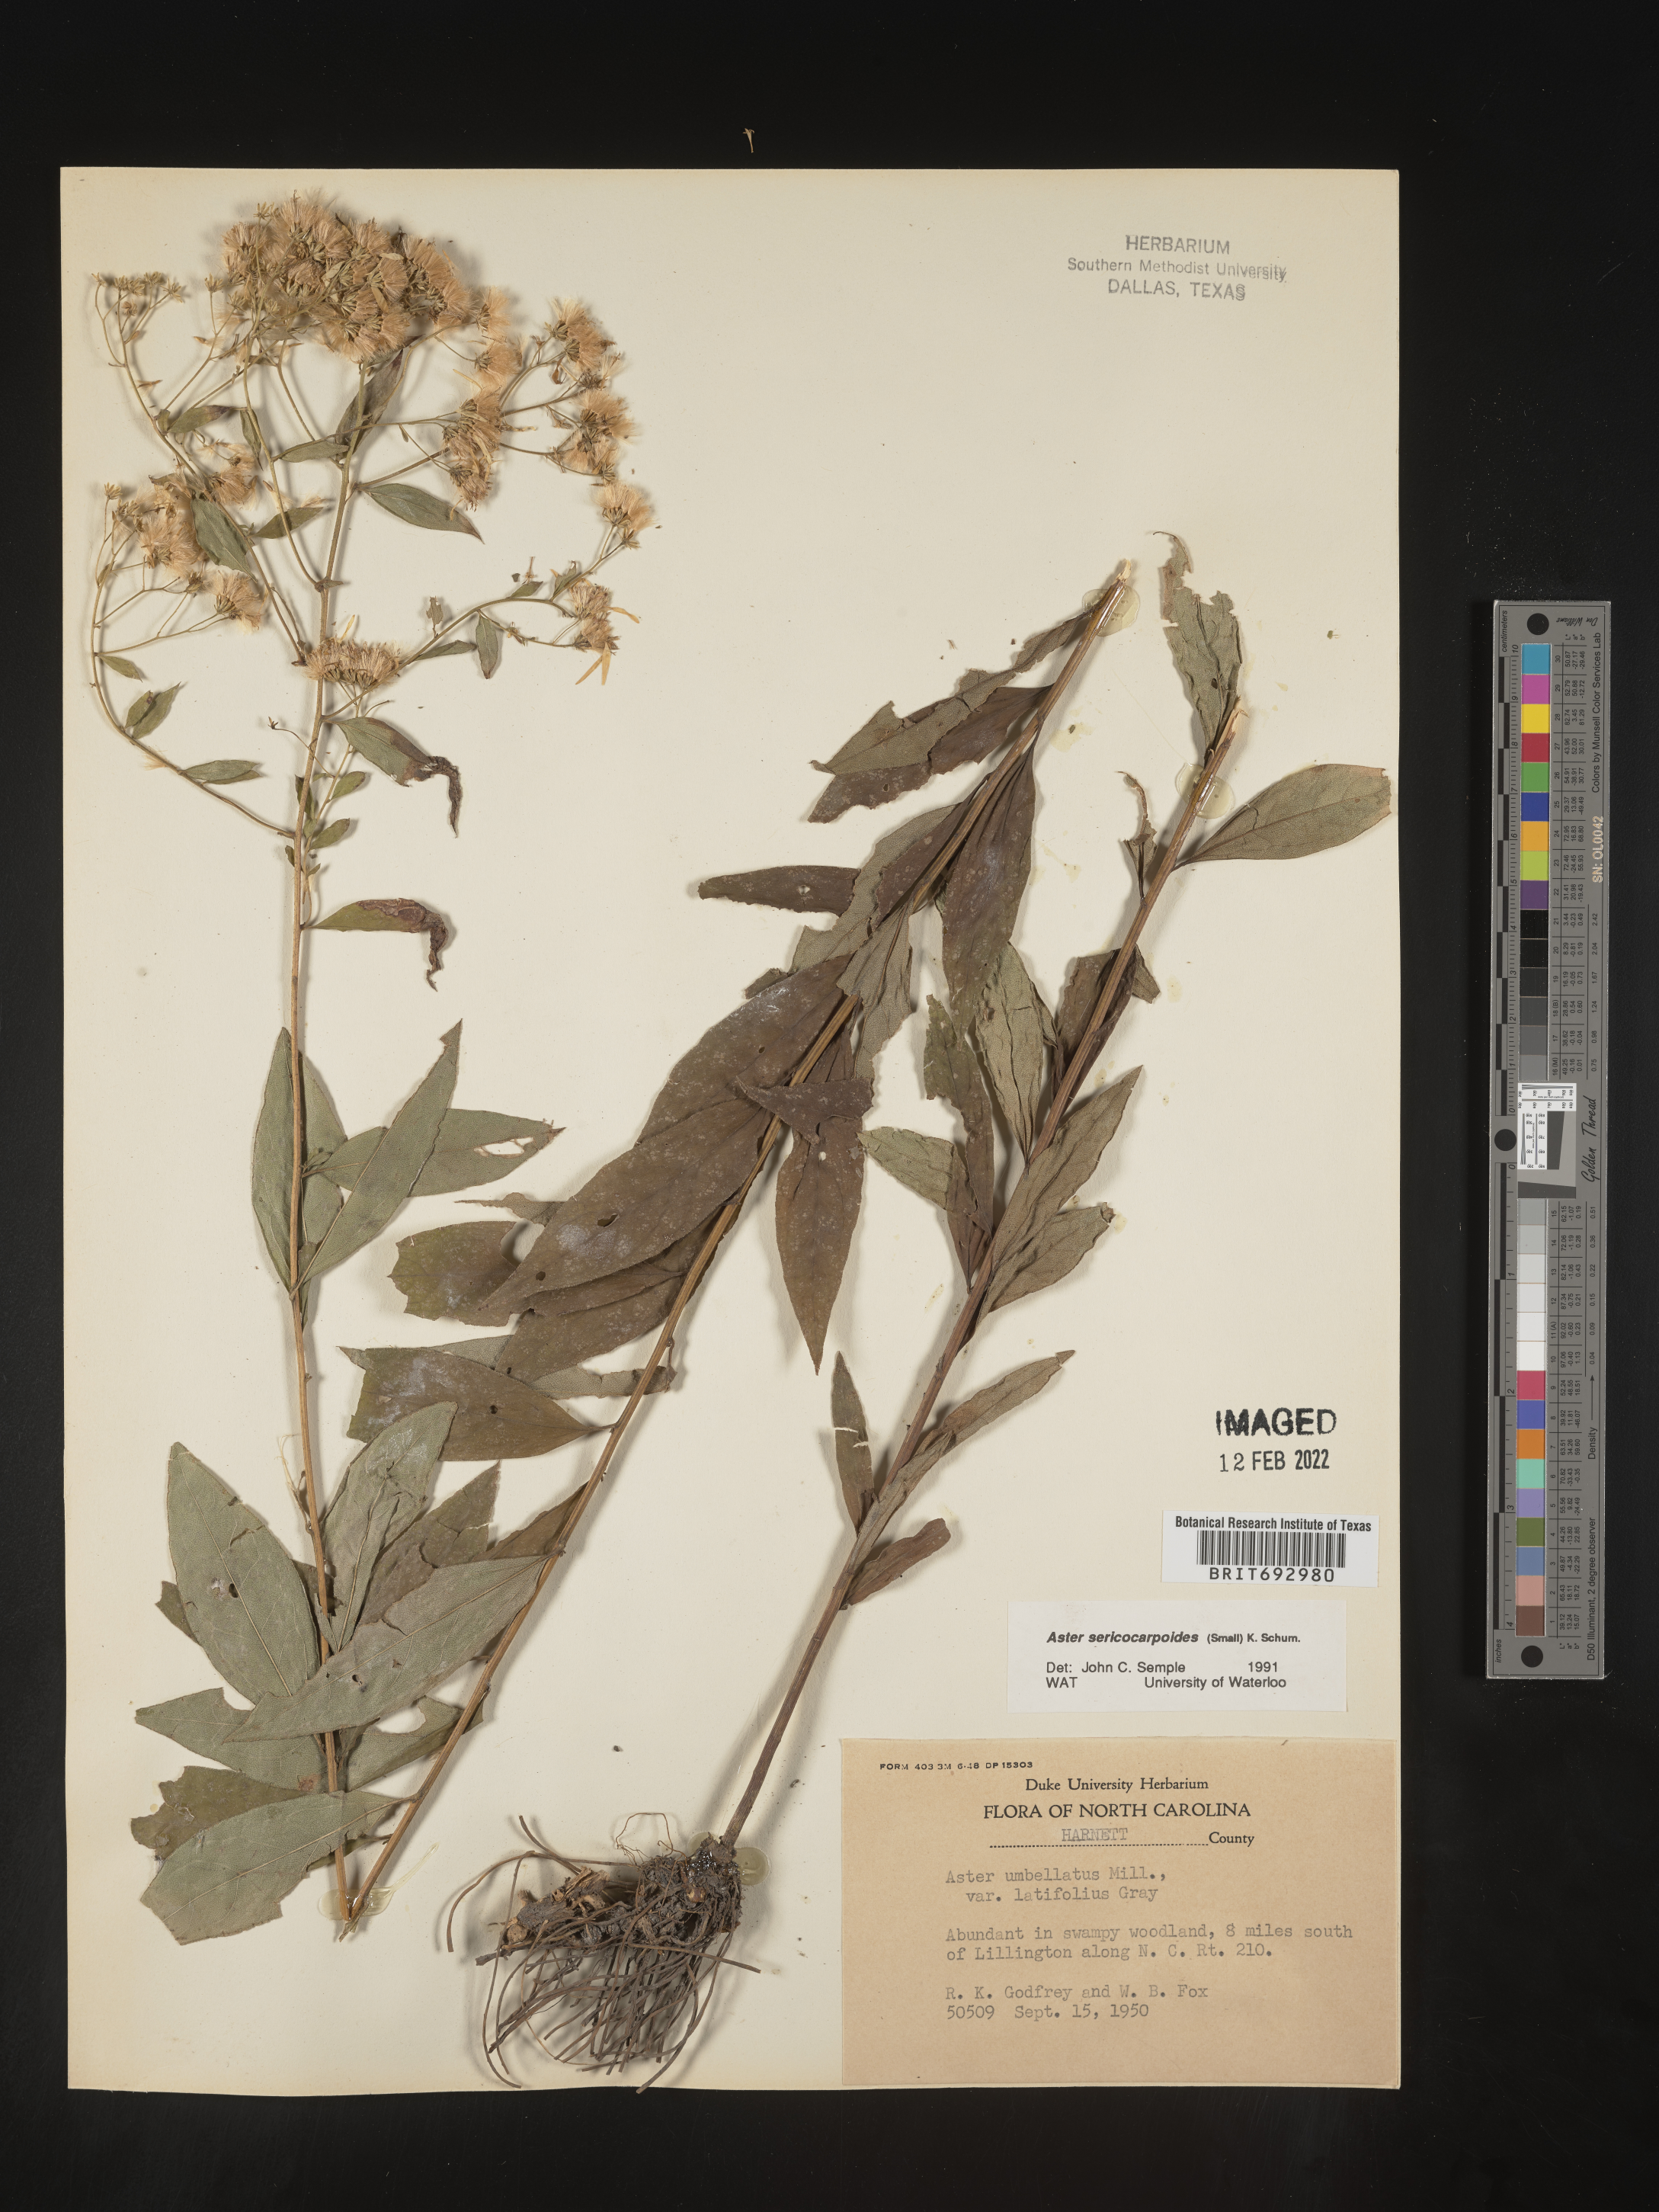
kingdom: Plantae
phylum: Tracheophyta
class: Magnoliopsida
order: Asterales
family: Asteraceae
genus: Doellingeria
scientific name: Doellingeria sericocarpoides
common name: Southern tall flat-top aster
